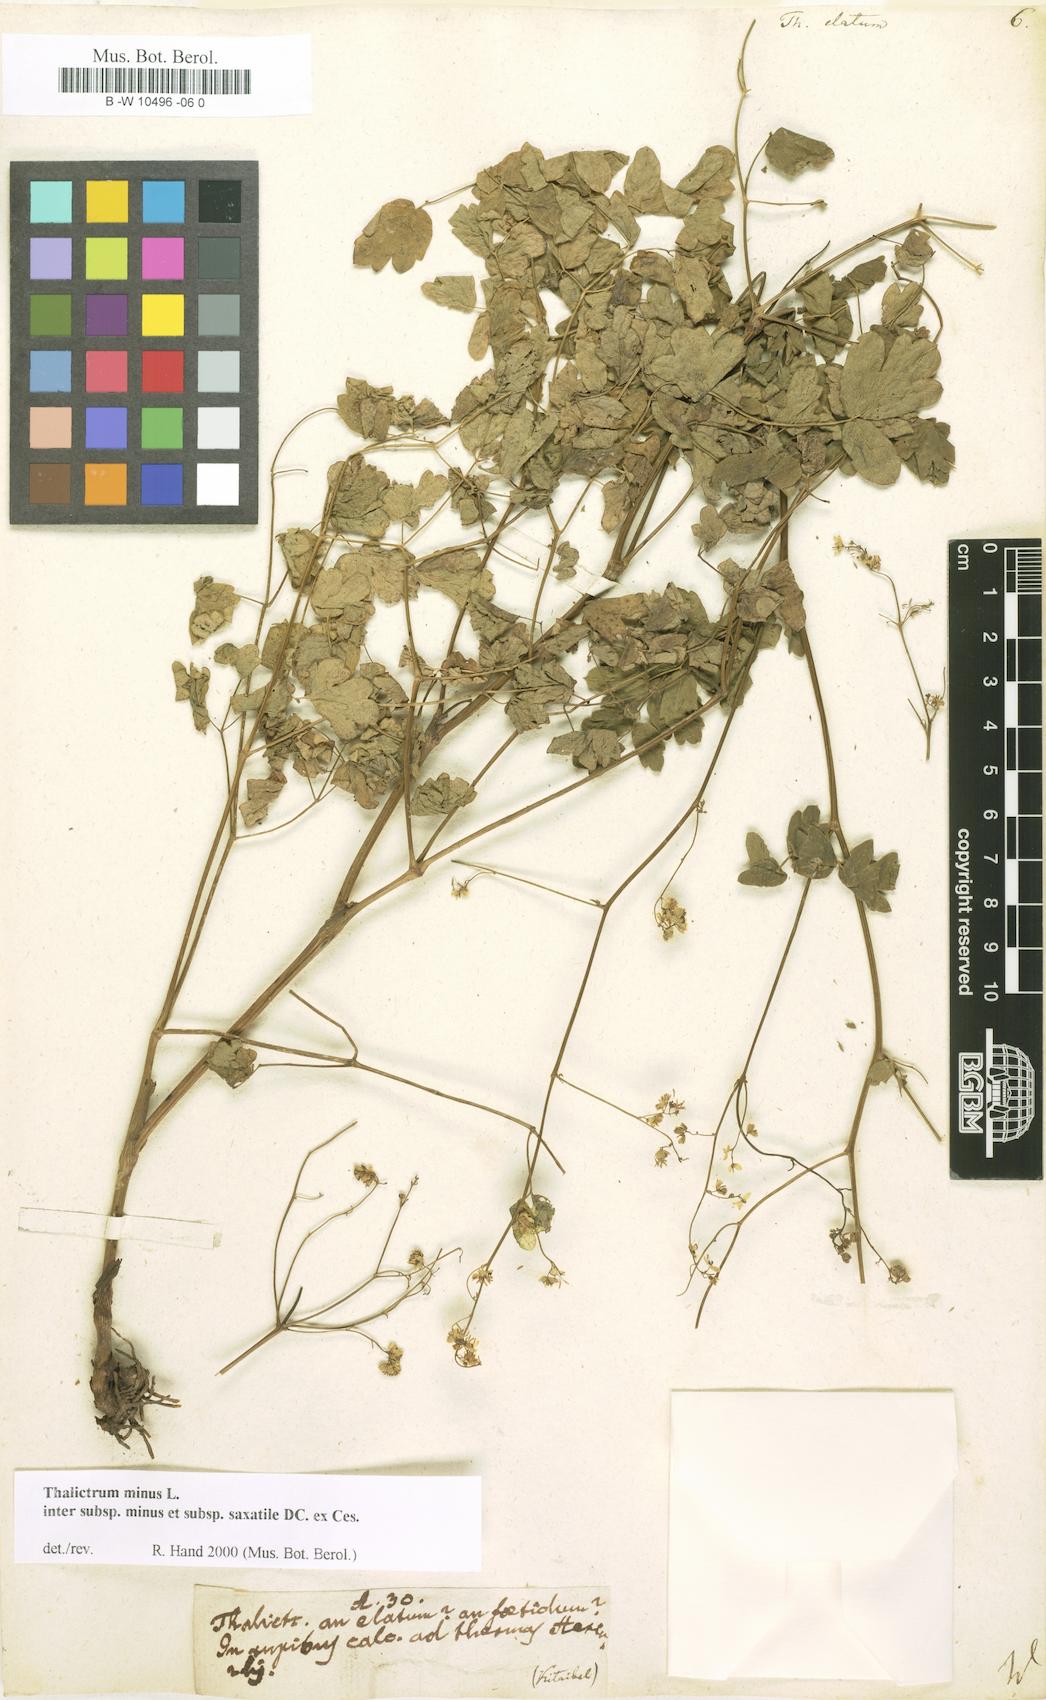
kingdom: Plantae
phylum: Tracheophyta
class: Magnoliopsida
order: Ranunculales
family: Ranunculaceae
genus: Thalictrum
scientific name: Thalictrum minus
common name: Lesser meadow-rue
